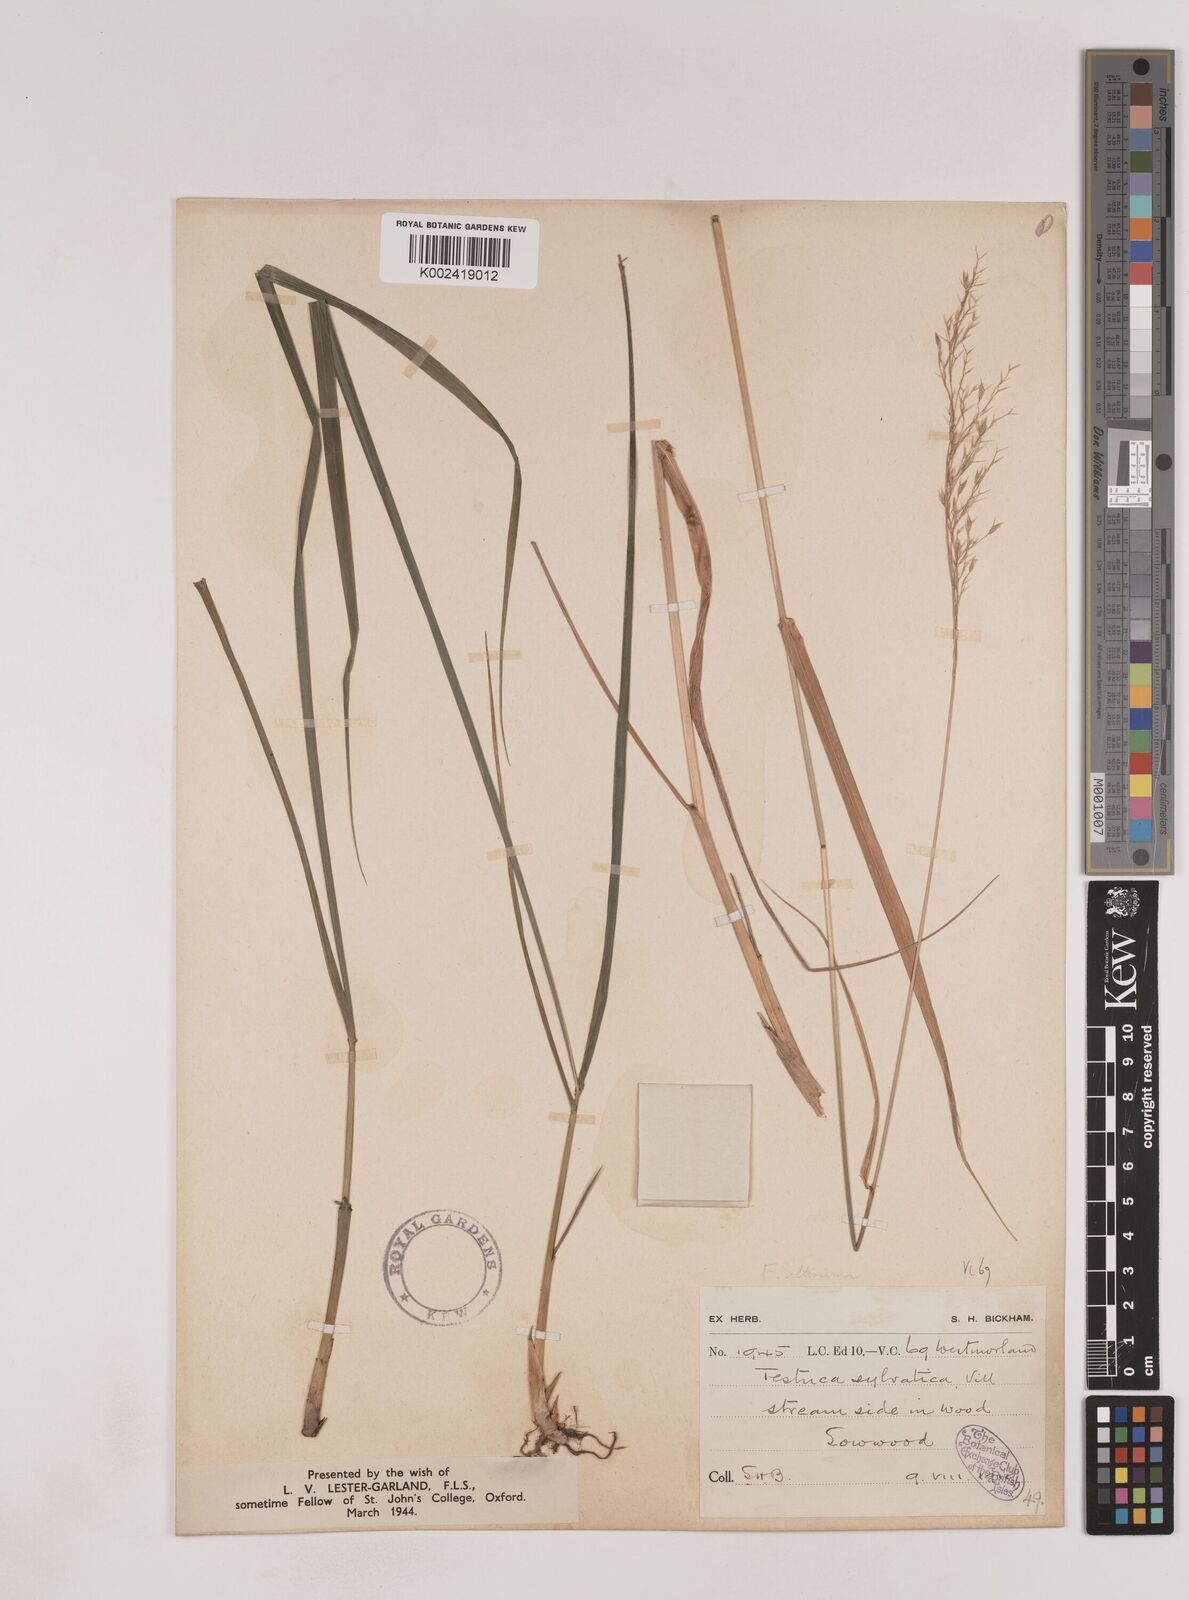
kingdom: Plantae
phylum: Tracheophyta
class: Liliopsida
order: Poales
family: Poaceae
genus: Festuca
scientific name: Festuca drymeja
